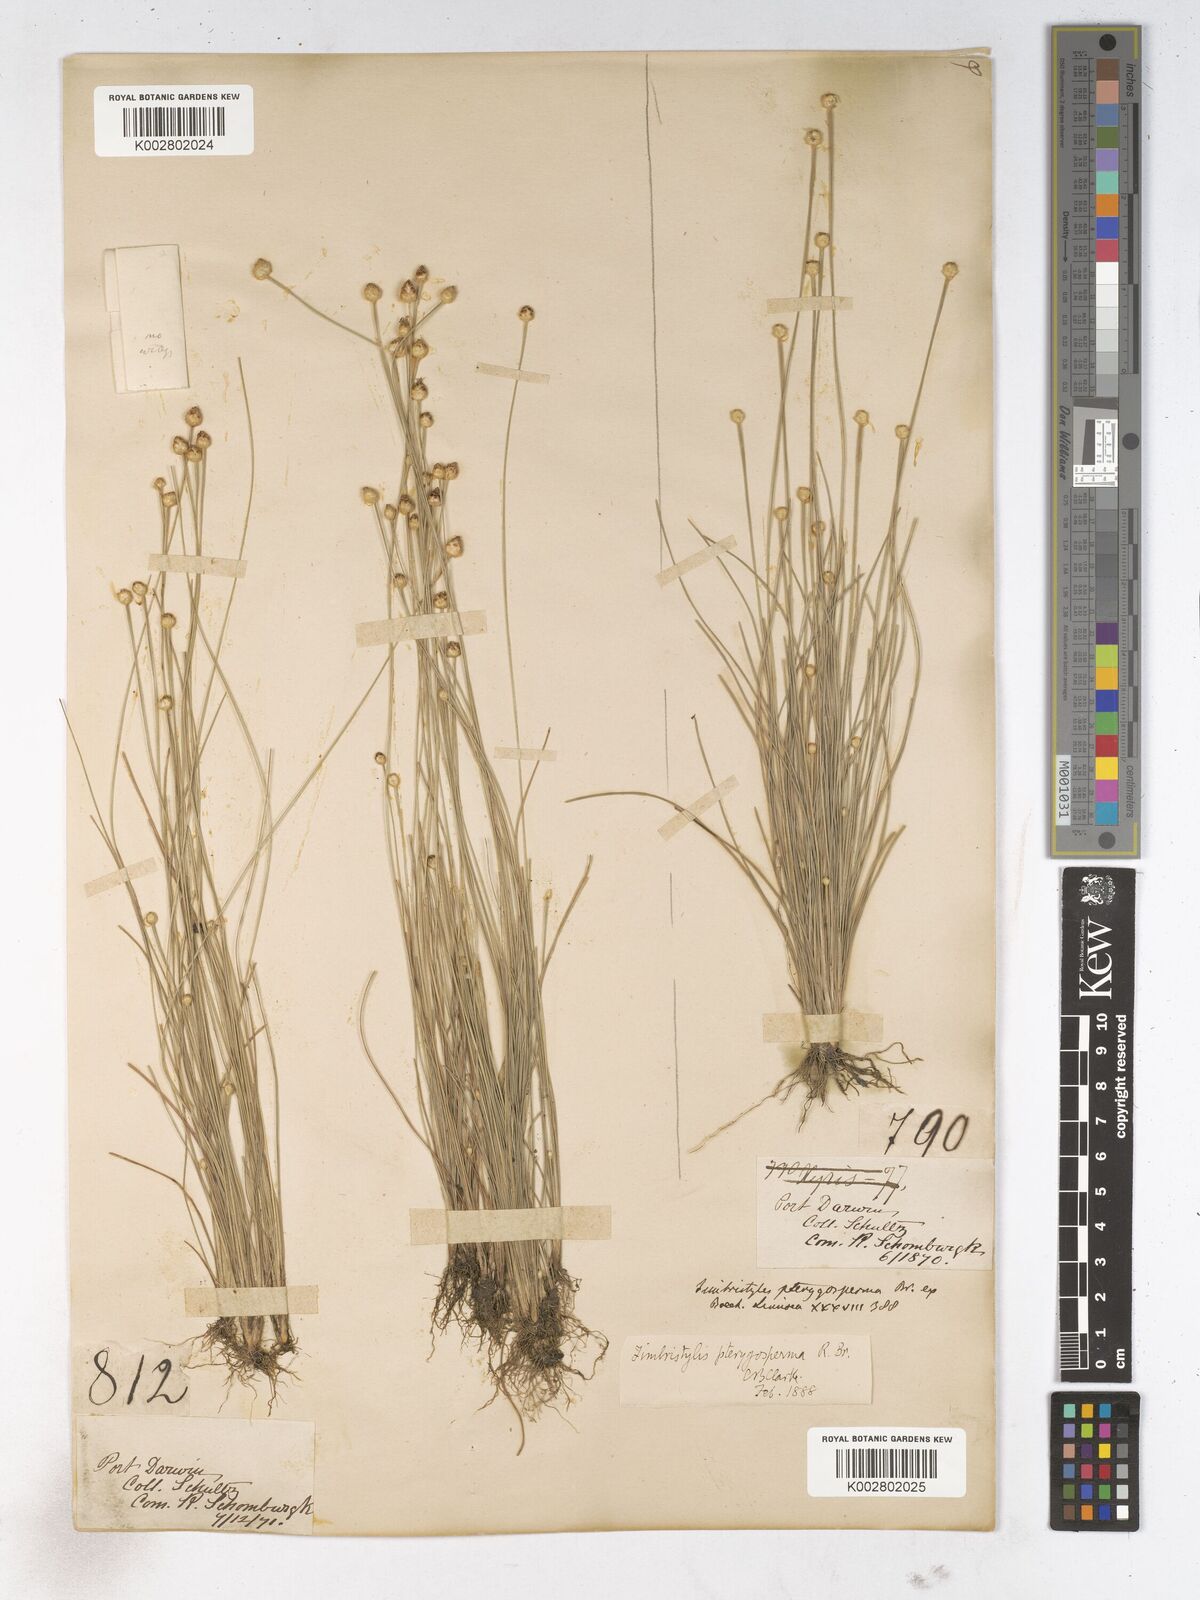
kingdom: Plantae
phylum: Tracheophyta
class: Liliopsida
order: Poales
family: Cyperaceae
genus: Fimbristylis
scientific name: Fimbristylis pterigosperma
